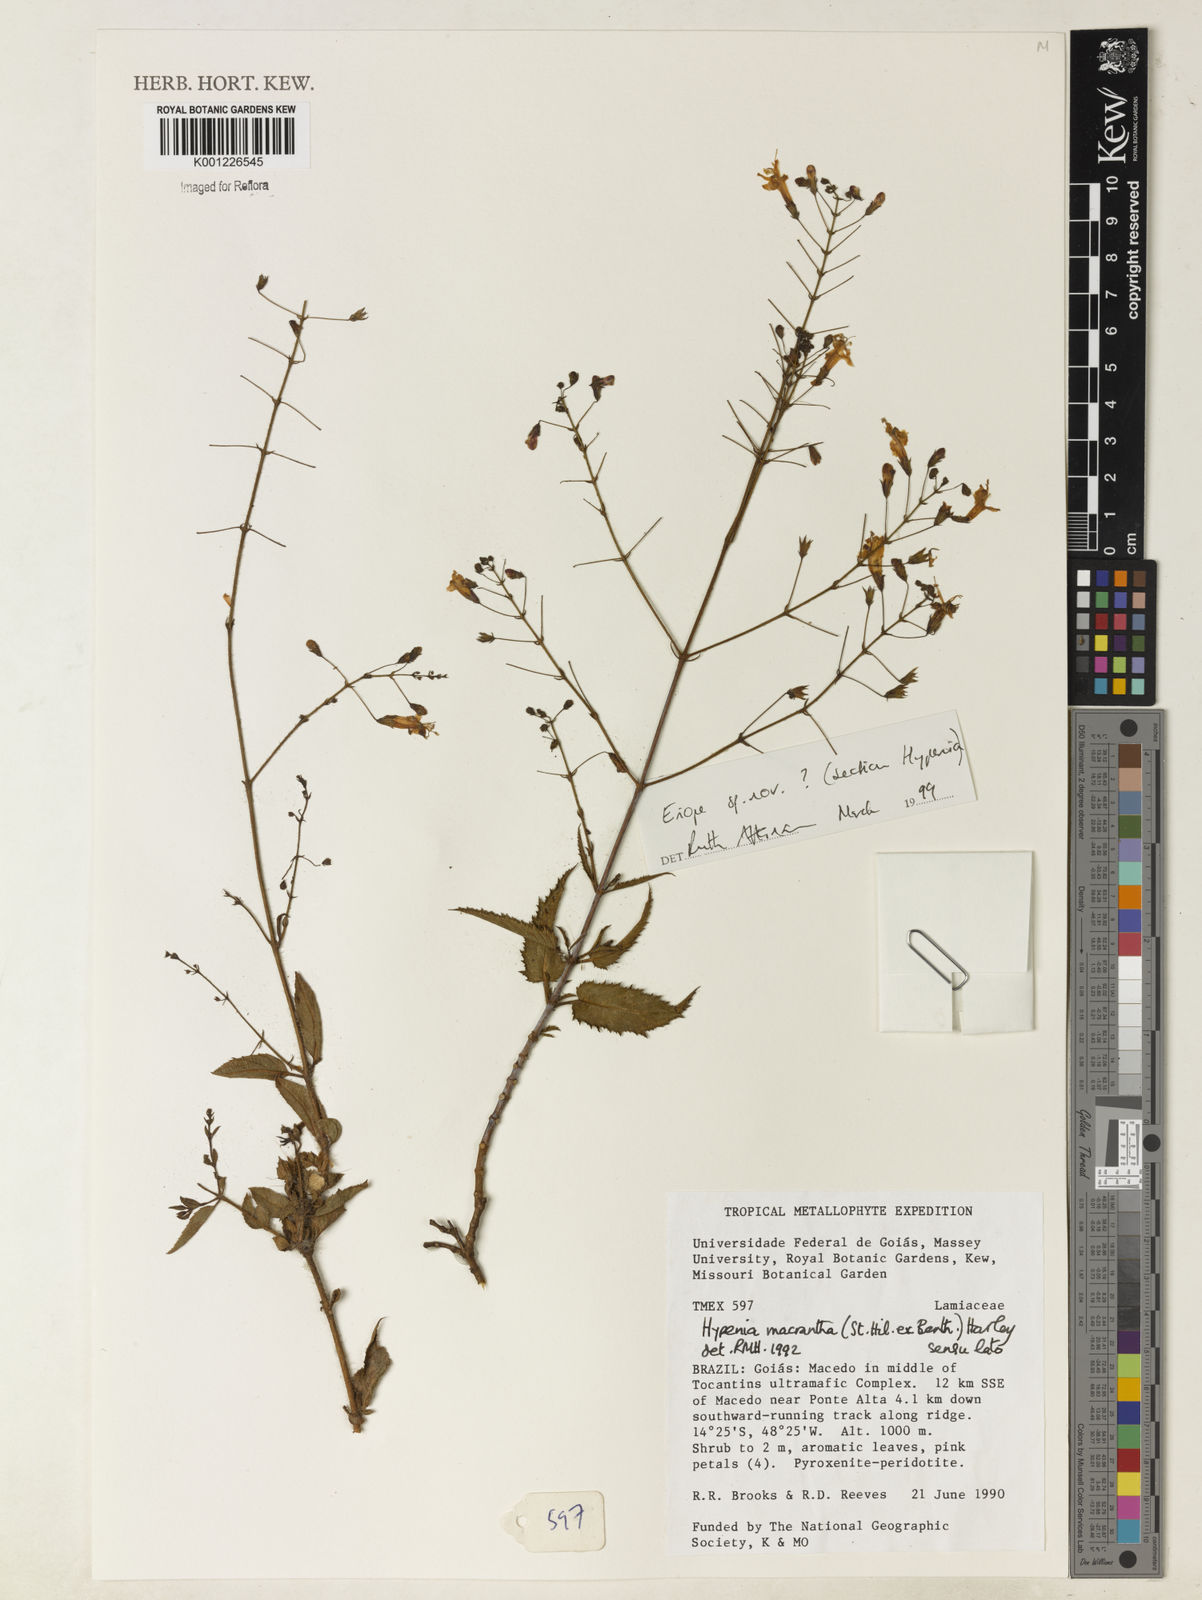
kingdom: Plantae
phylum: Tracheophyta
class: Magnoliopsida
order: Lamiales
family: Lamiaceae
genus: Hypenia
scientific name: Hypenia
